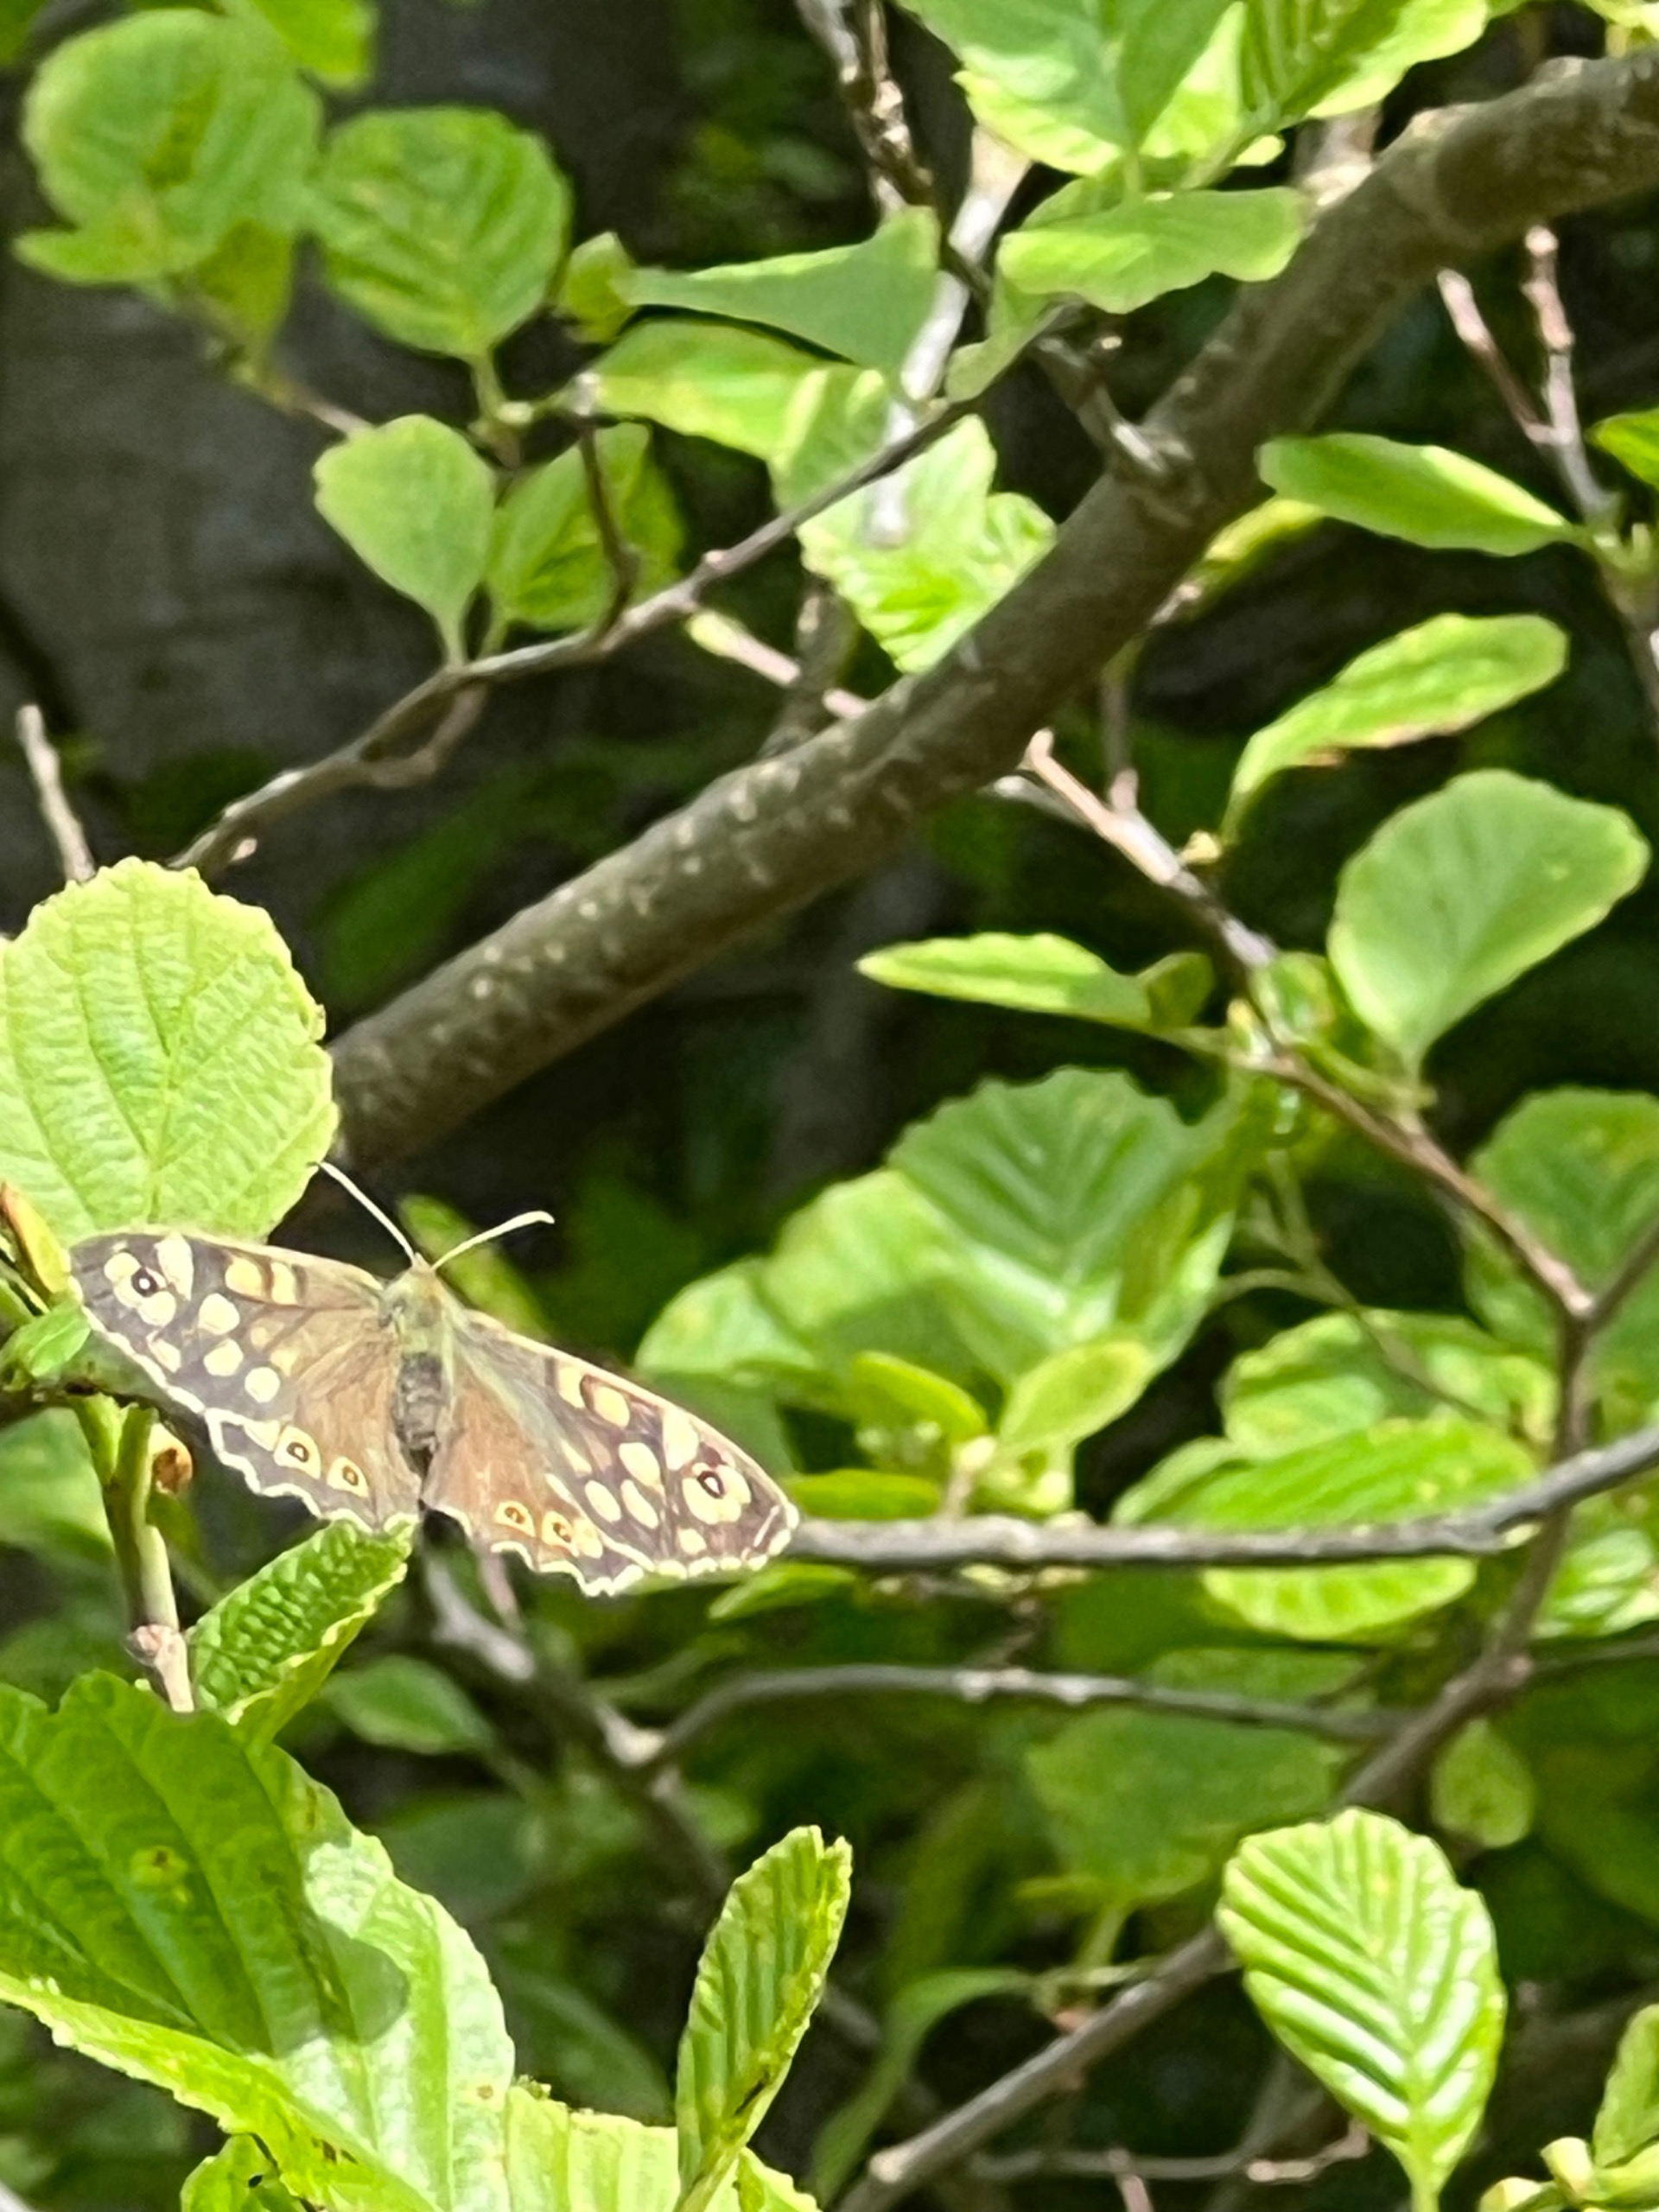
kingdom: Animalia
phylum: Arthropoda
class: Insecta
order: Lepidoptera
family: Nymphalidae
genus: Pararge
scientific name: Pararge aegeria
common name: Skovrandøje
